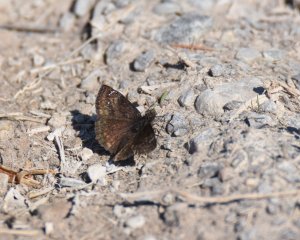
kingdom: Animalia
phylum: Arthropoda
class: Insecta
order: Lepidoptera
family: Hesperiidae
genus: Gesta
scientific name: Gesta
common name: Columbine Duskywing
